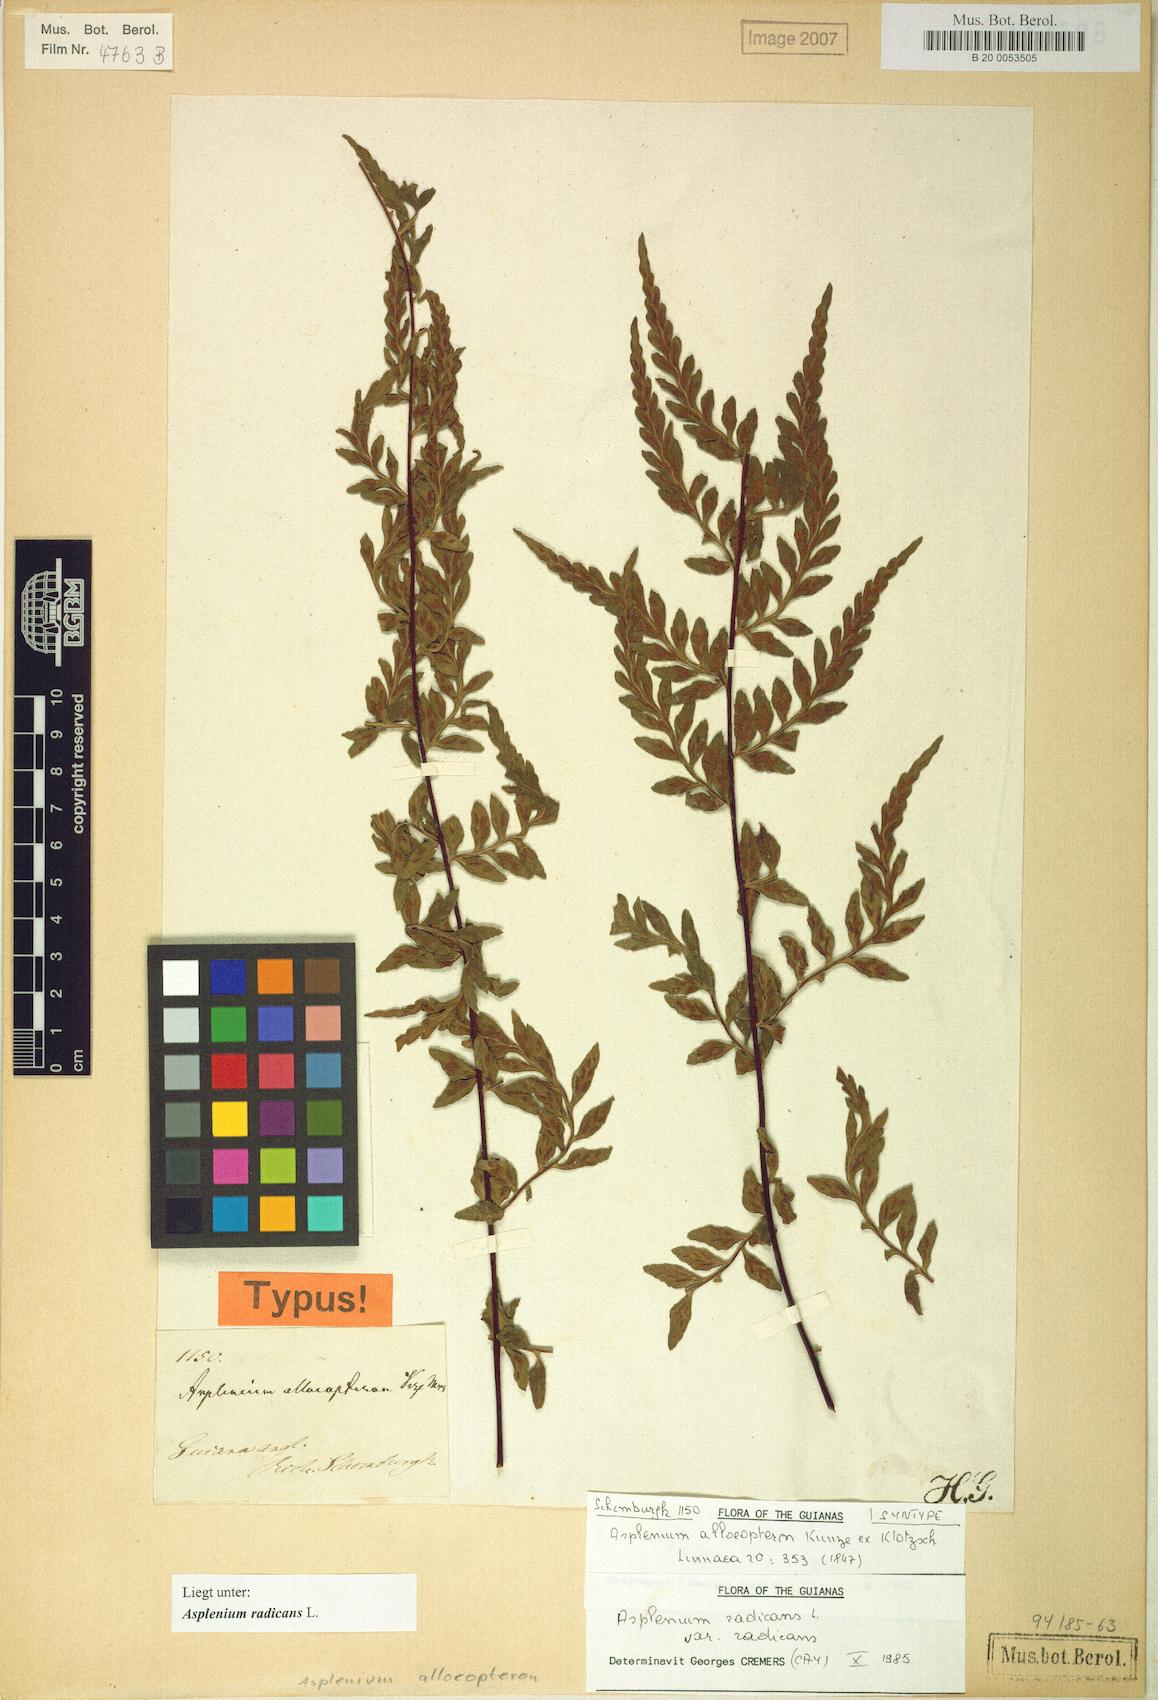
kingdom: Plantae
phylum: Tracheophyta
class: Polypodiopsida
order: Polypodiales
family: Aspleniaceae
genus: Asplenium
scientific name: Asplenium radicans
